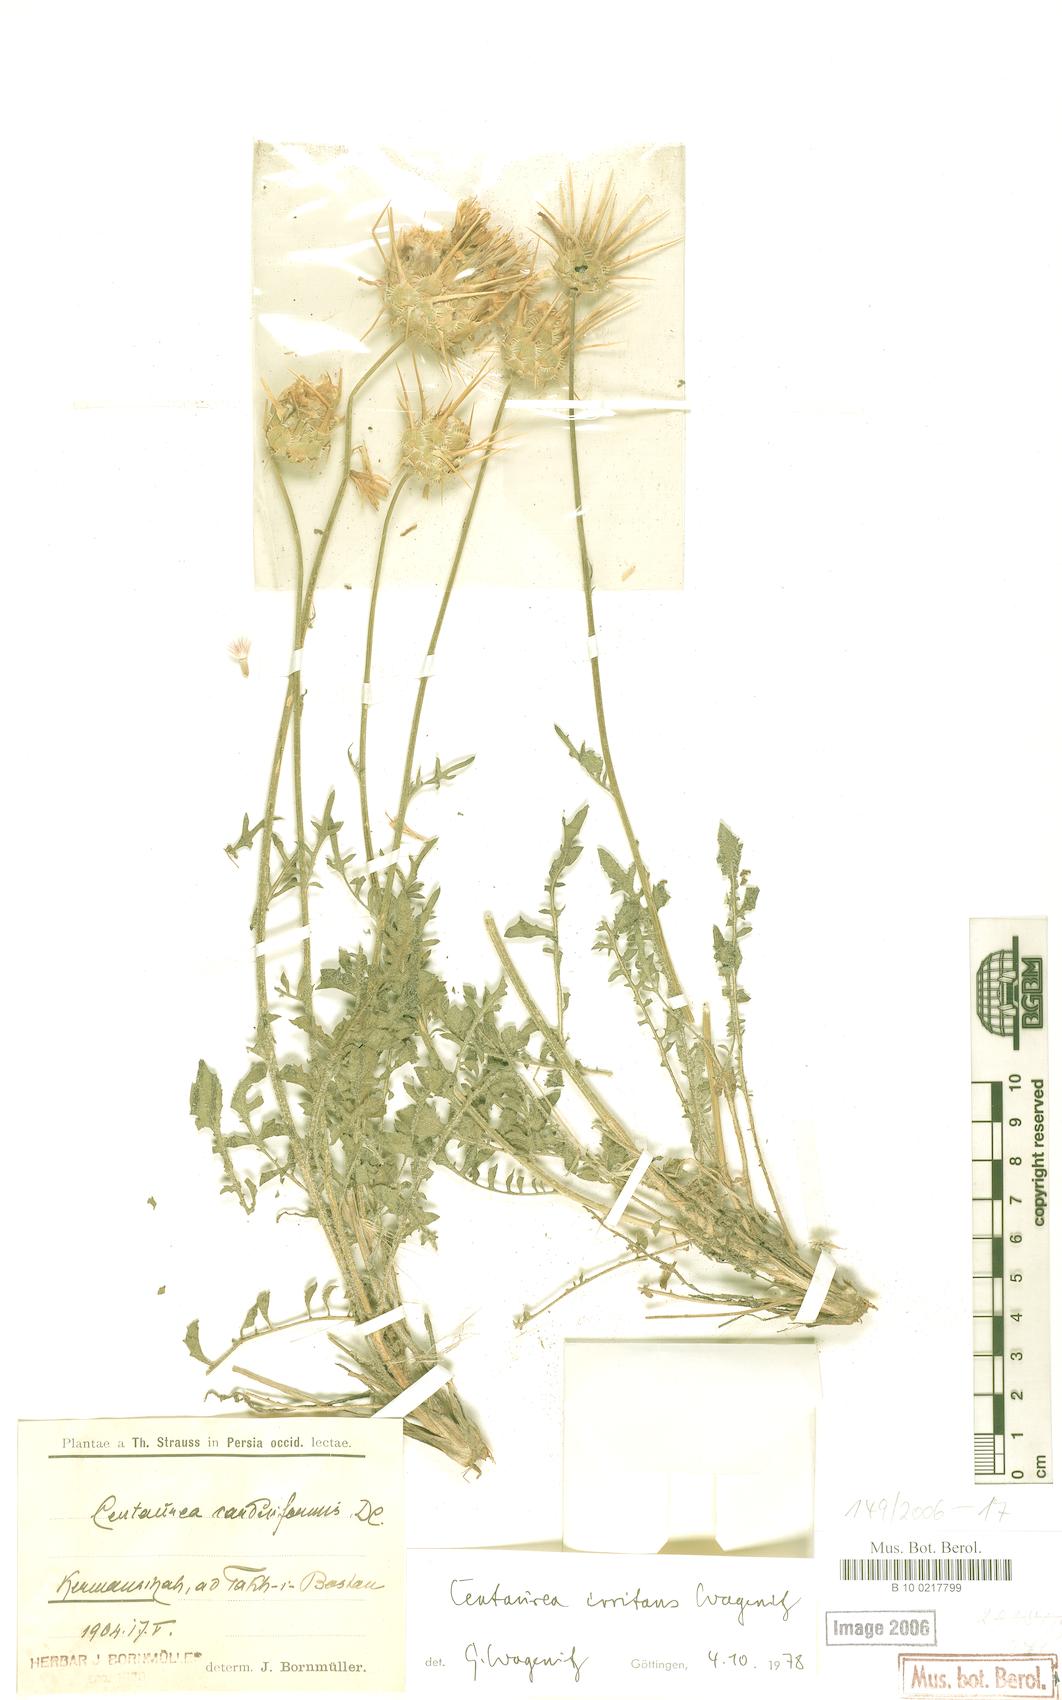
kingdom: Plantae
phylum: Tracheophyta
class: Magnoliopsida
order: Asterales
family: Asteraceae
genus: Centaurea
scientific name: Centaurea irritans
